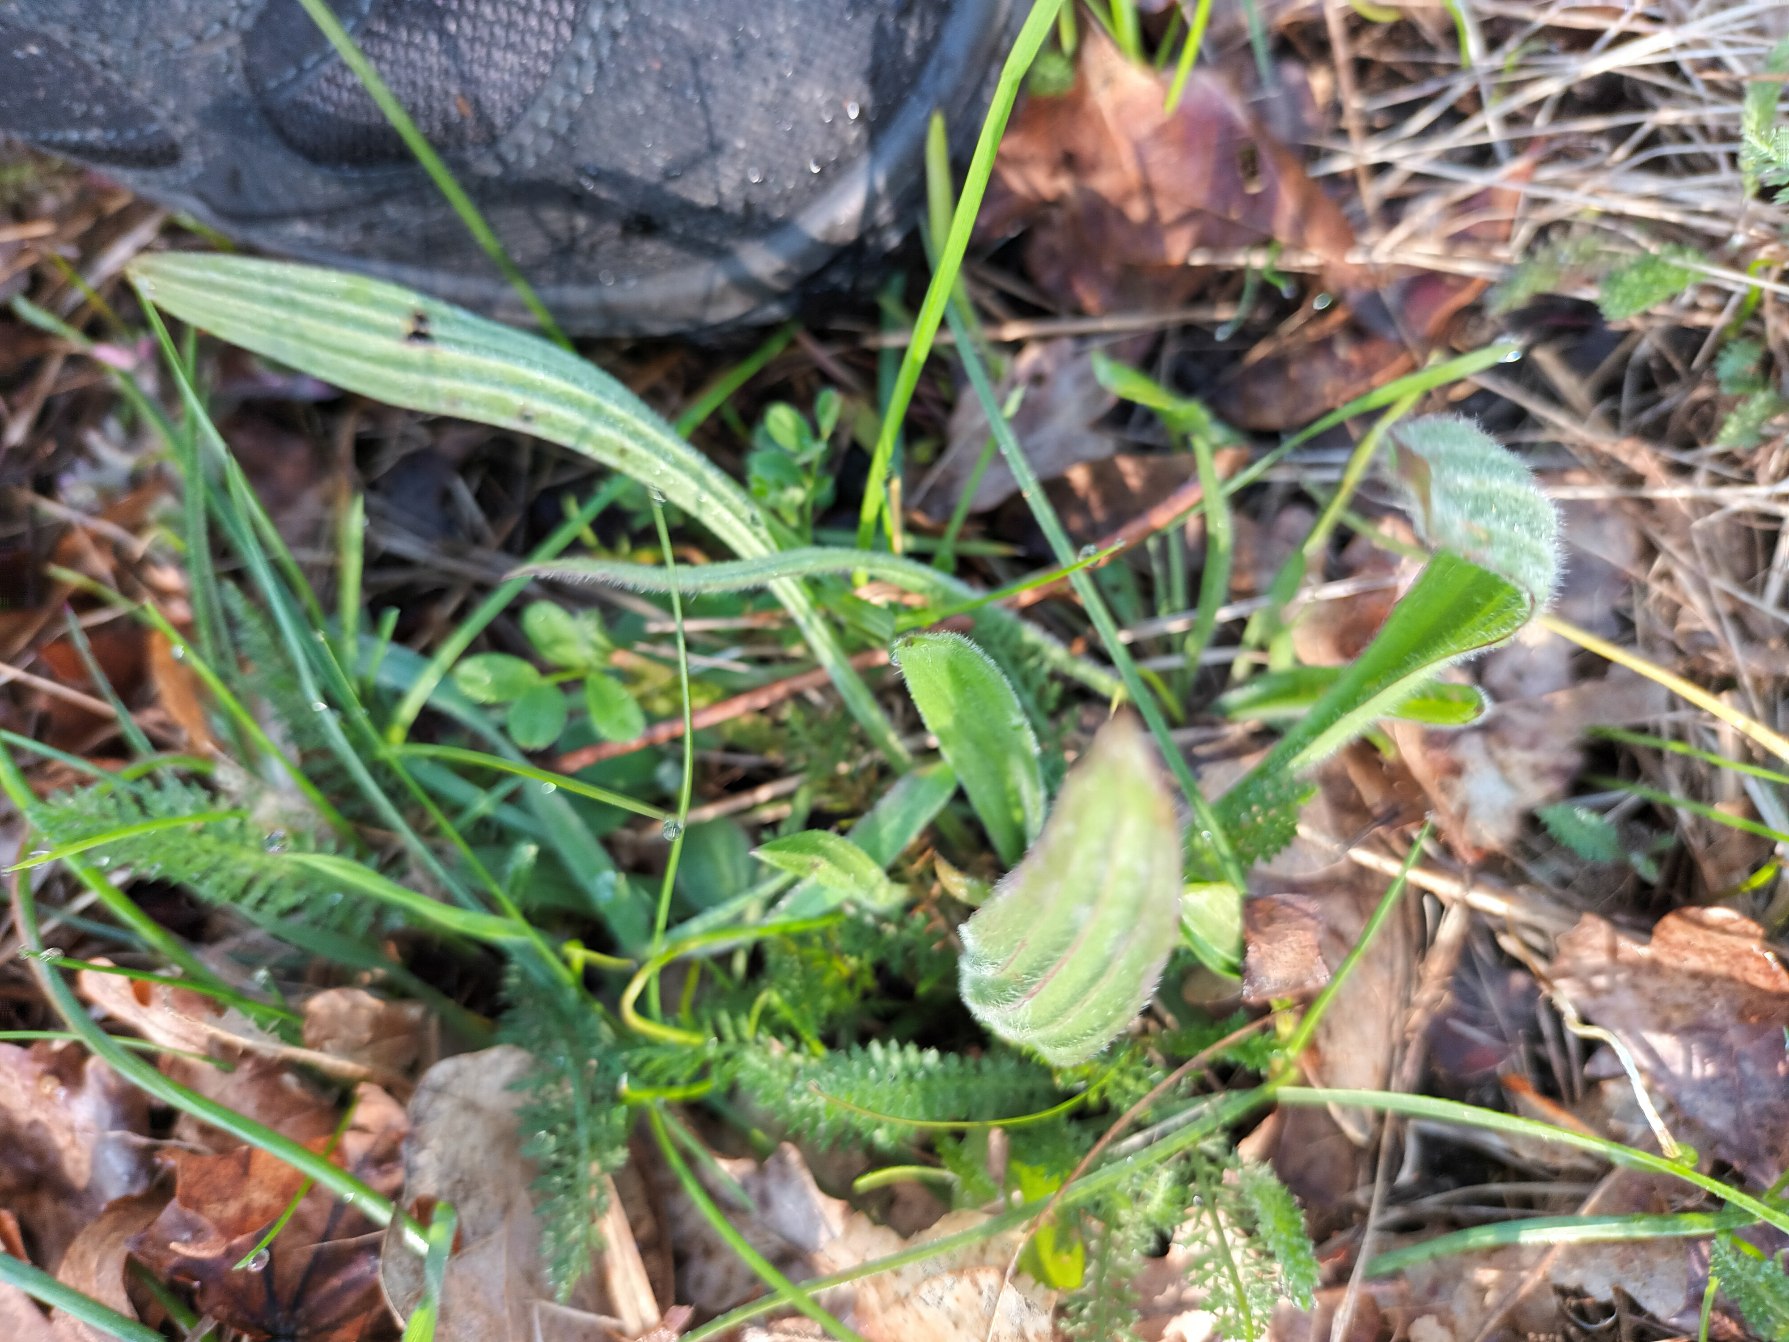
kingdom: Plantae
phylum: Tracheophyta
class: Magnoliopsida
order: Lamiales
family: Plantaginaceae
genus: Plantago
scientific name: Plantago lanceolata
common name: Lancet-vejbred
